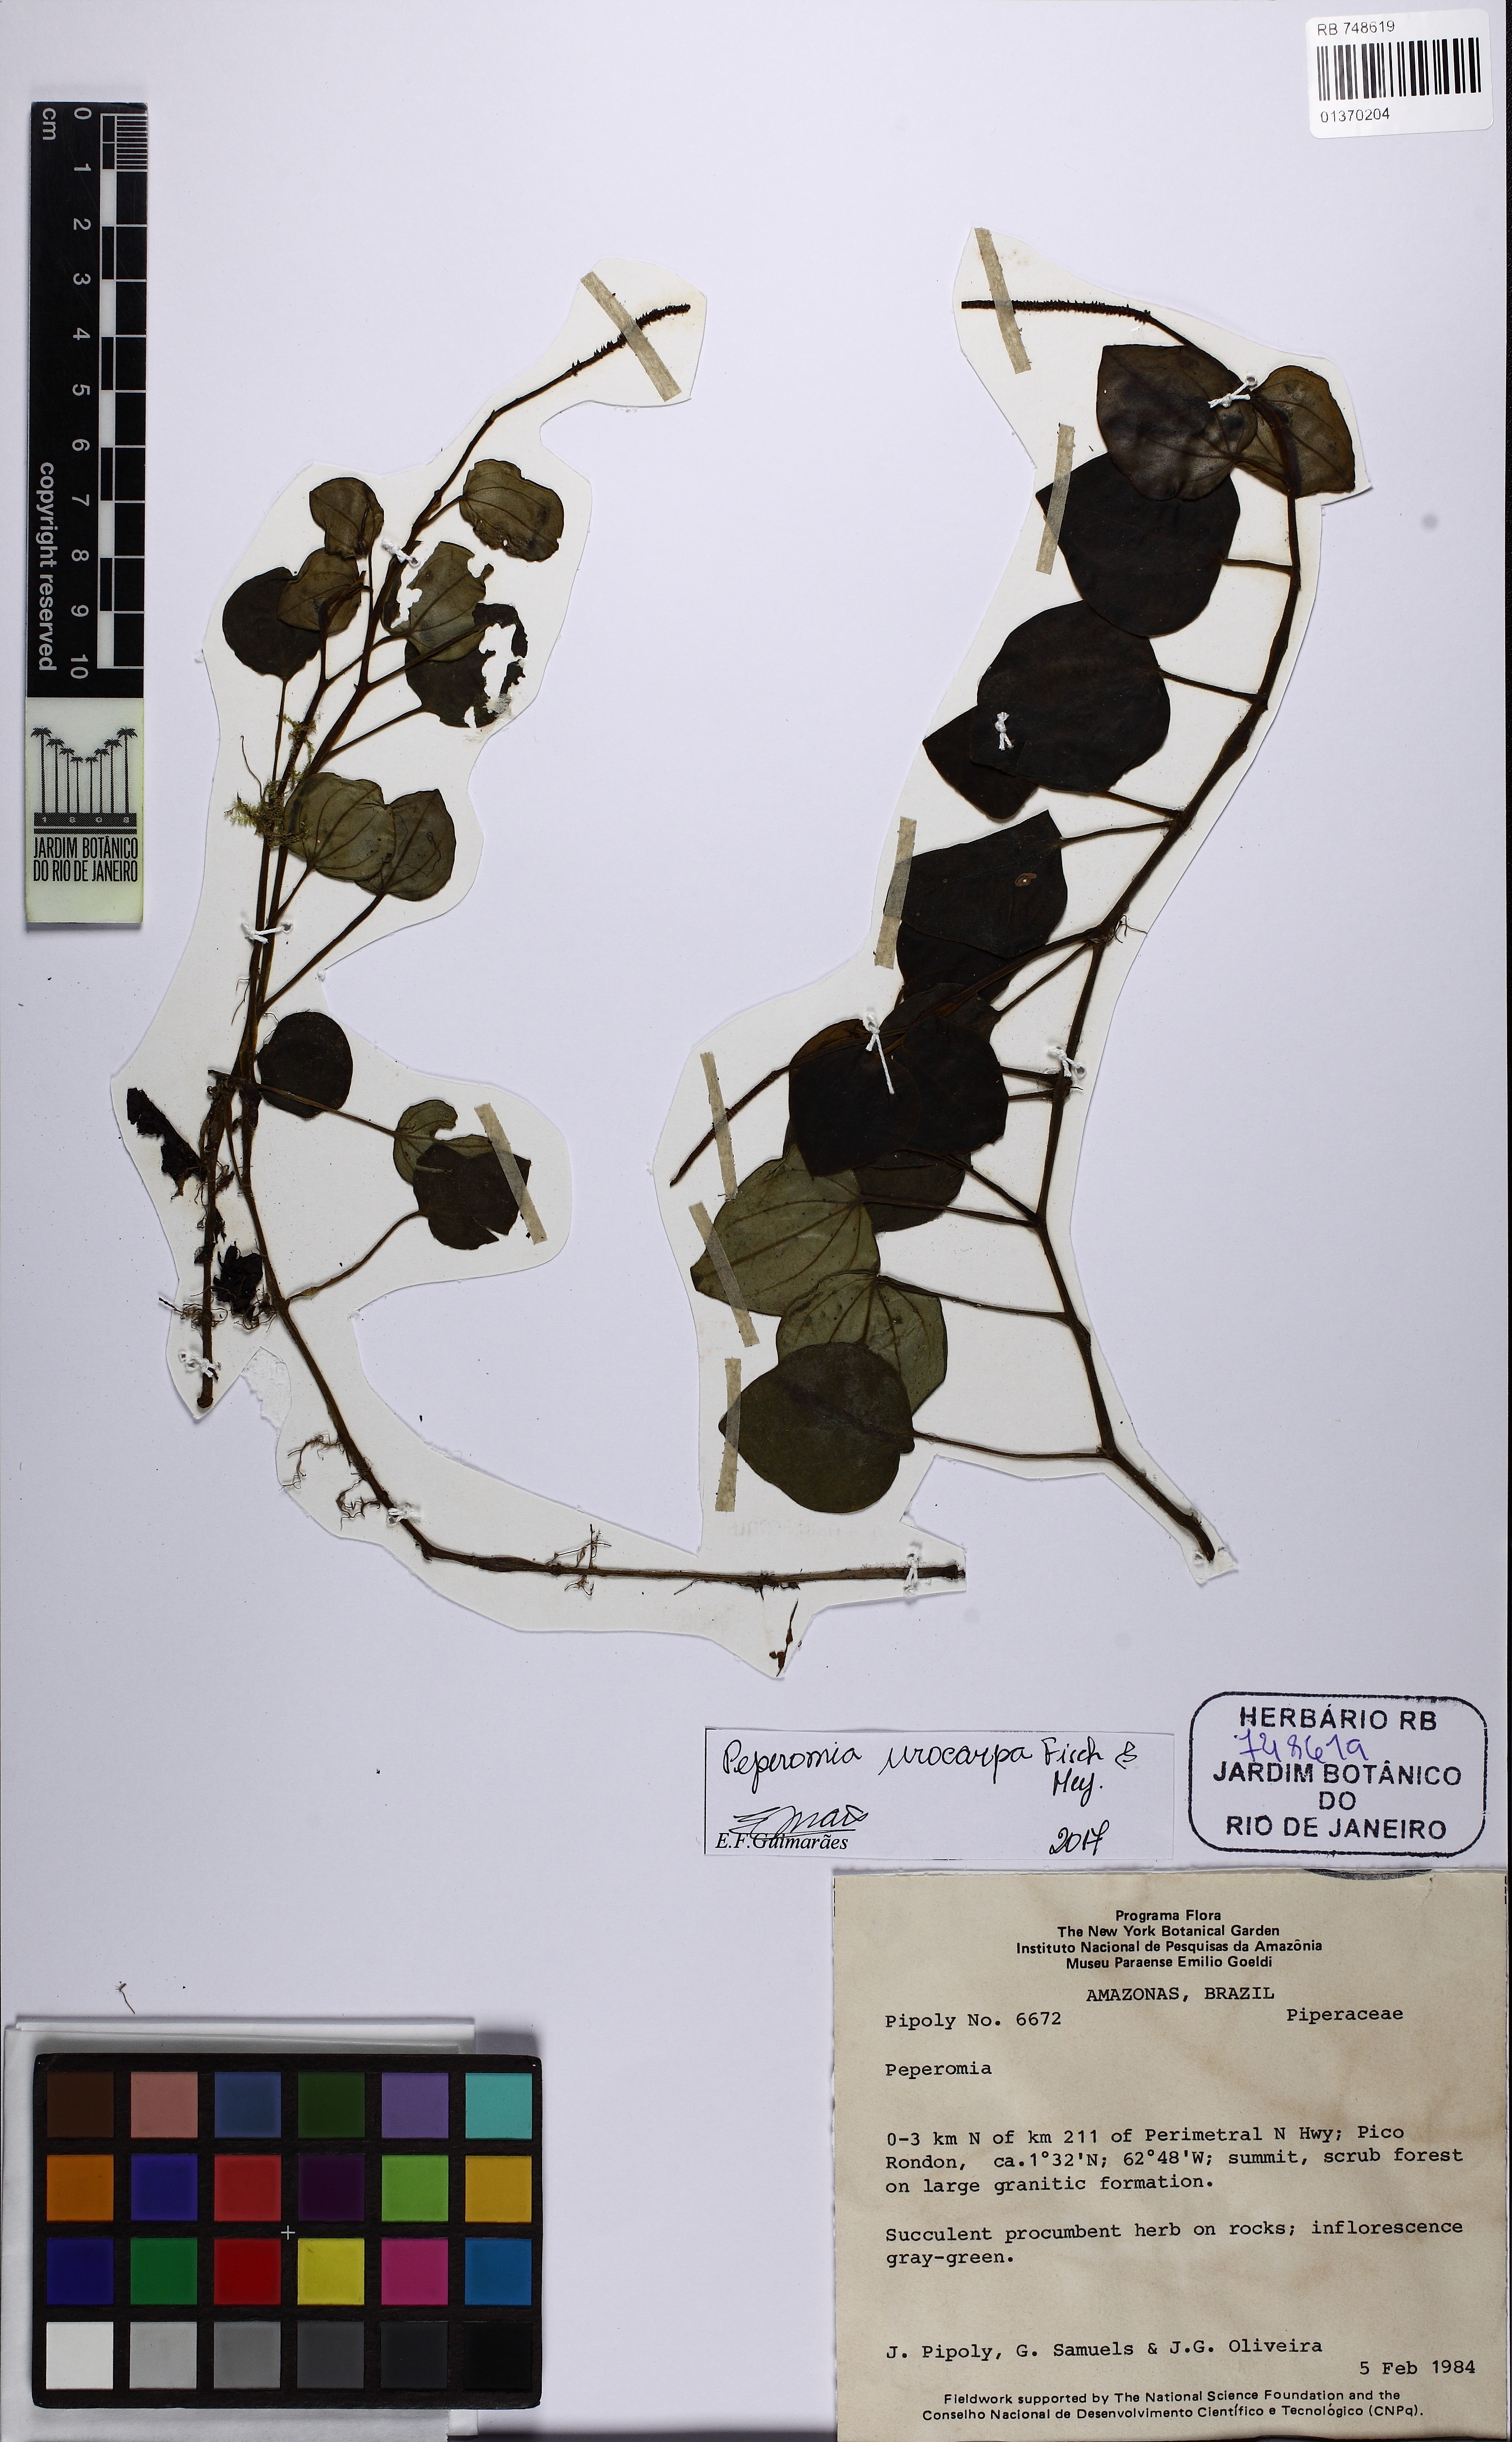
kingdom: Plantae
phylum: Tracheophyta
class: Magnoliopsida
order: Piperales
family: Piperaceae
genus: Peperomia
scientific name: Peperomia urocarpa
